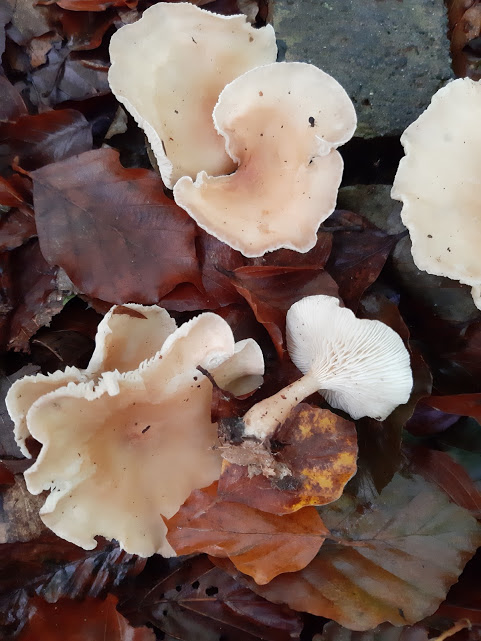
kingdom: Fungi
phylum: Basidiomycota
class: Agaricomycetes
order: Agaricales
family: Tricholomataceae
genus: Infundibulicybe
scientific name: Infundibulicybe gibba
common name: almindelig tragthat
